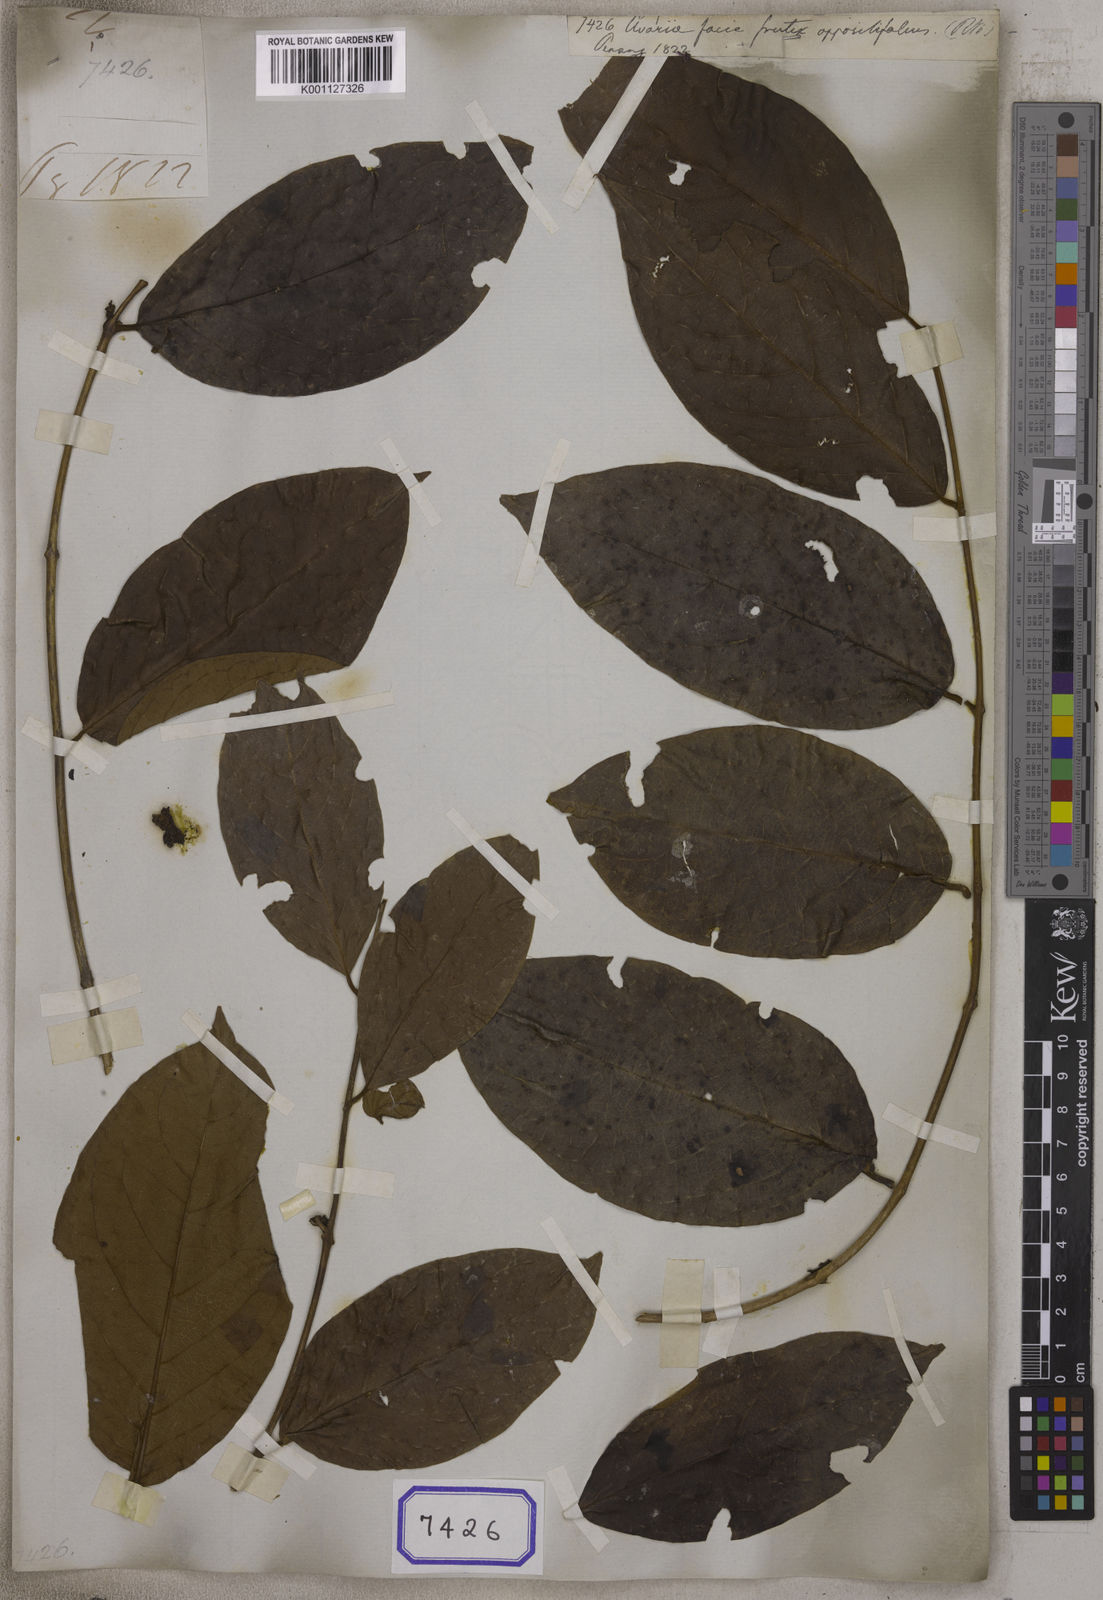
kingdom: Plantae
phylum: Tracheophyta
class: Magnoliopsida
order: Magnoliales
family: Annonaceae
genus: Uvaria
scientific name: Uvaria
